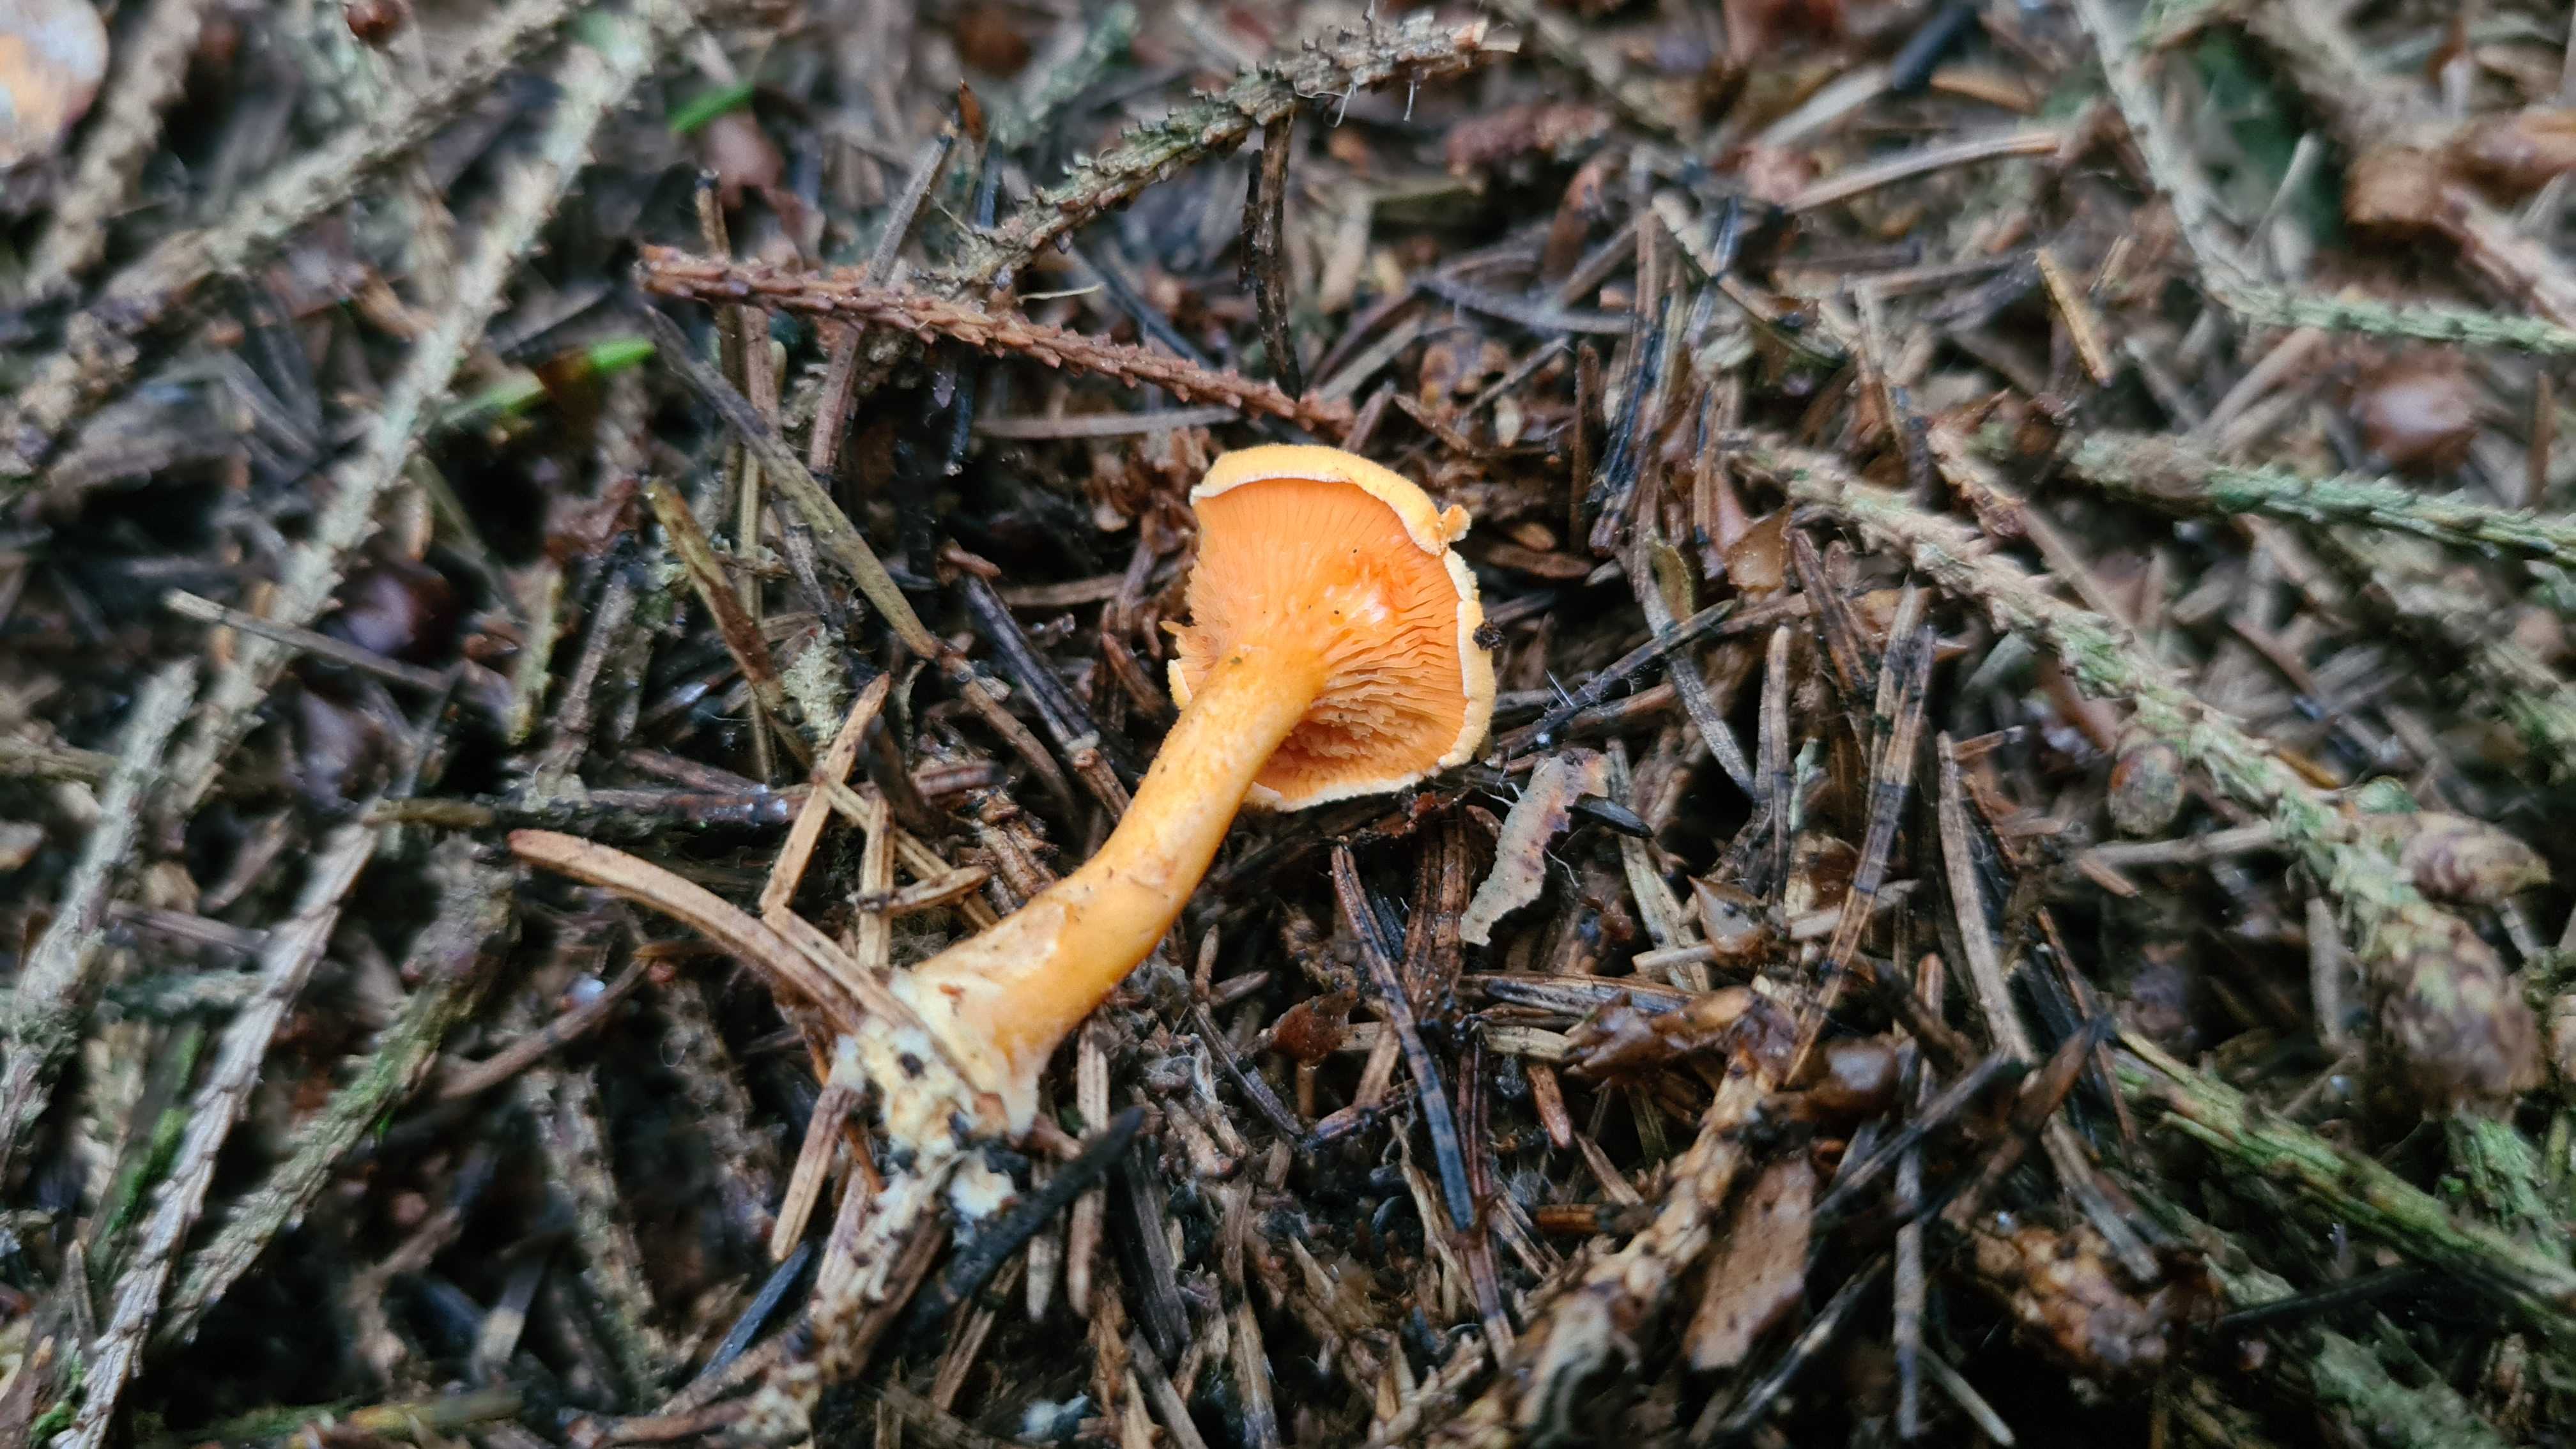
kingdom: Fungi
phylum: Basidiomycota
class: Agaricomycetes
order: Boletales
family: Hygrophoropsidaceae
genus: Hygrophoropsis
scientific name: Hygrophoropsis aurantiaca
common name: almindelig orangekantarel
